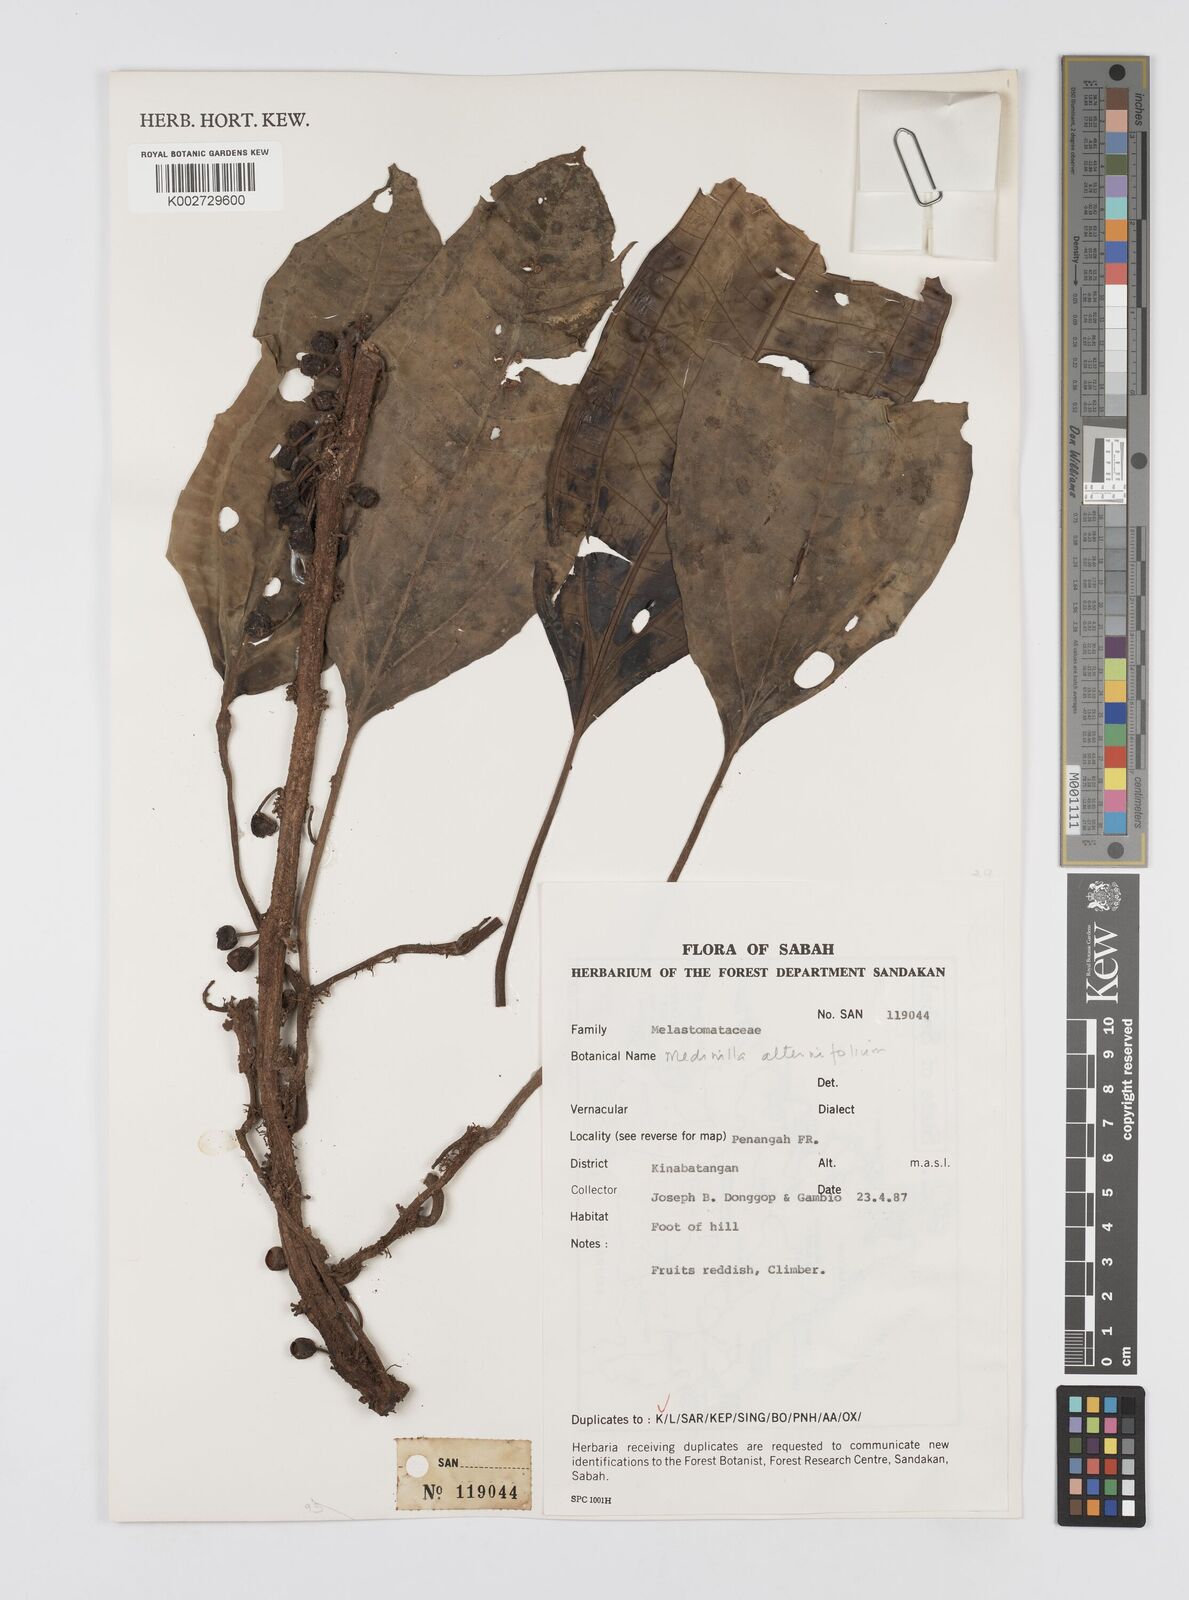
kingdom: Plantae
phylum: Tracheophyta
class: Magnoliopsida
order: Myrtales
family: Melastomataceae
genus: Heteroblemma
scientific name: Heteroblemma alternifolium
